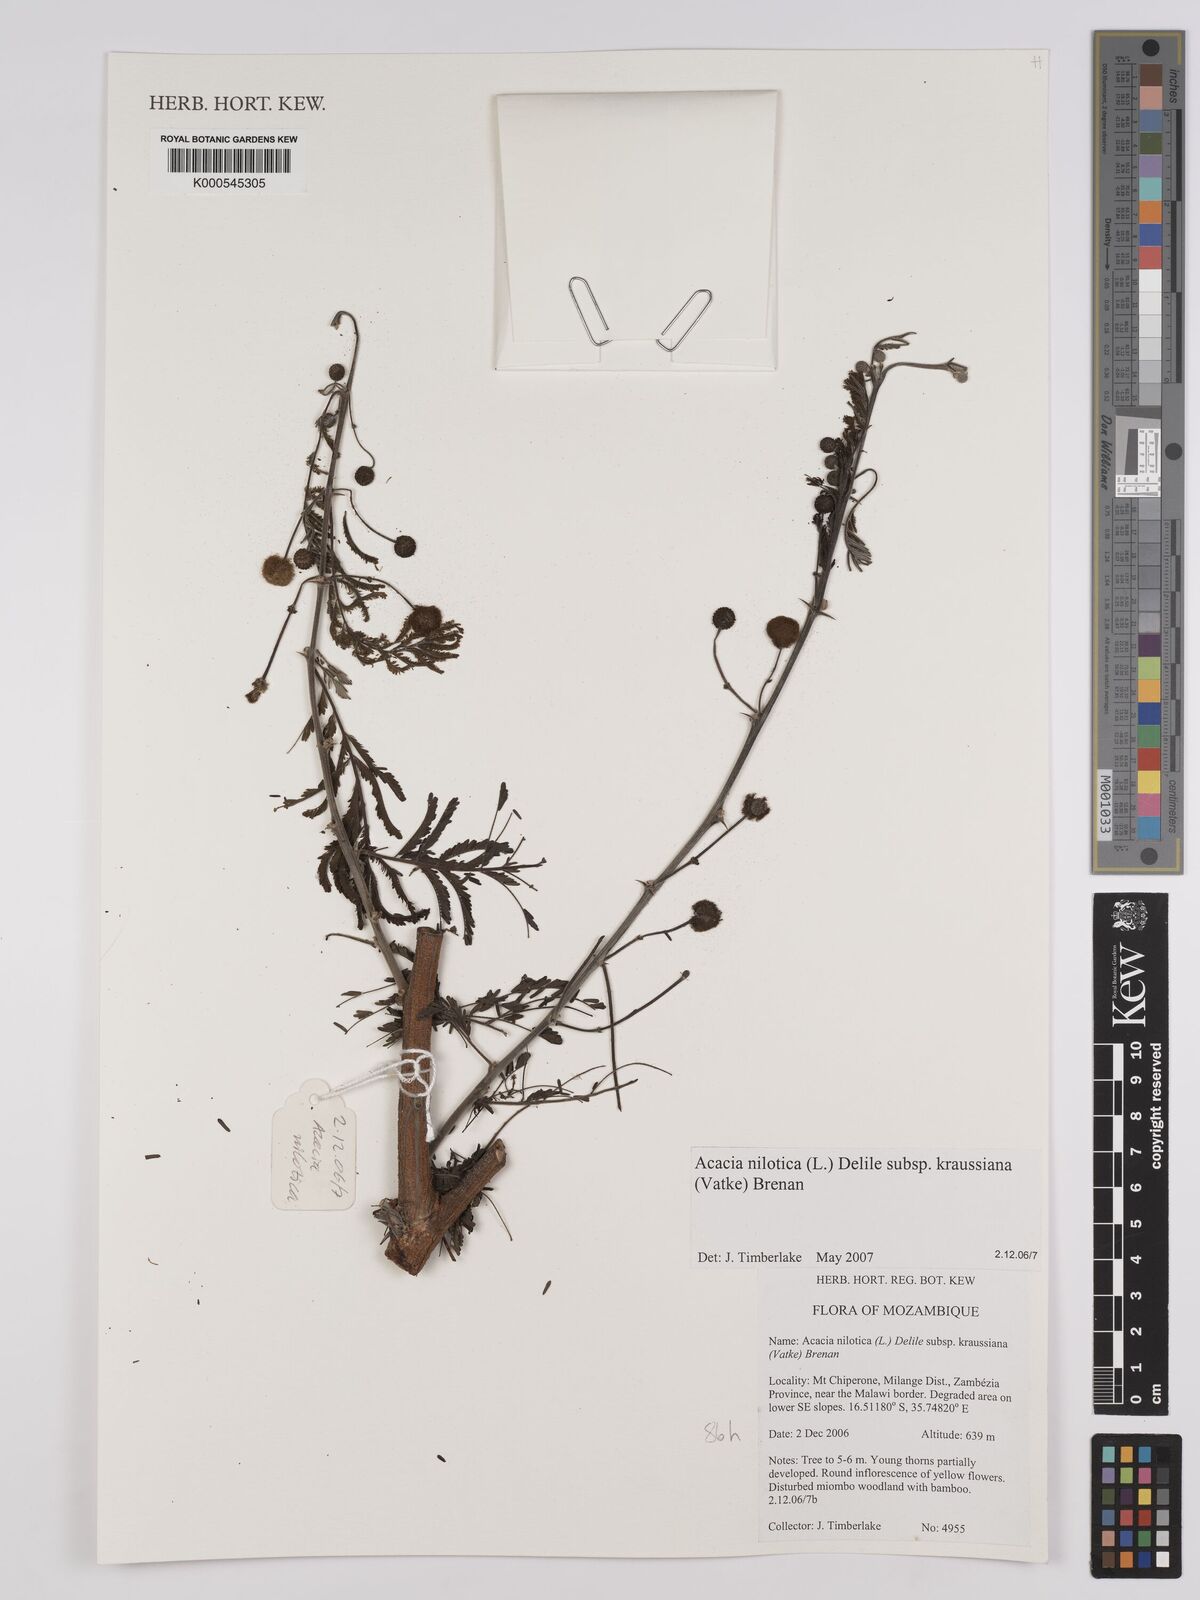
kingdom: Plantae
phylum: Tracheophyta
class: Magnoliopsida
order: Fabales
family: Fabaceae
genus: Vachellia
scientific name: Vachellia nilotica
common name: Arabic gumtree
